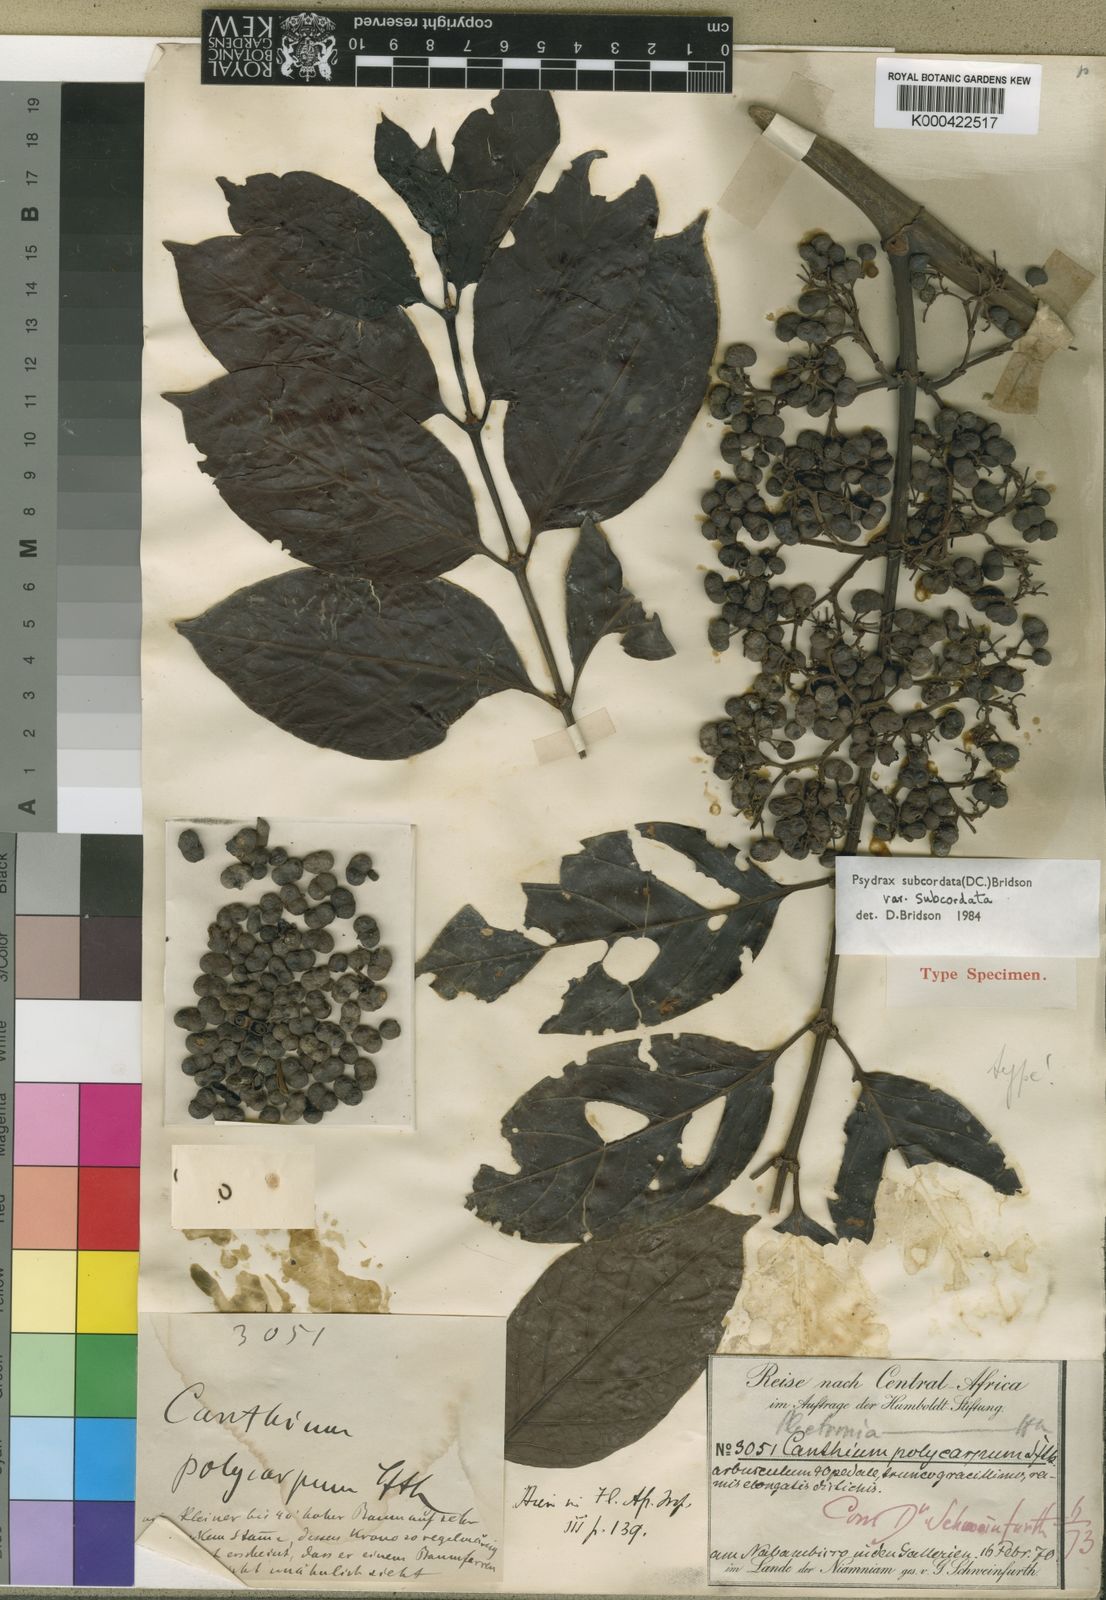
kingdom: Plantae
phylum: Tracheophyta
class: Magnoliopsida
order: Gentianales
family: Rubiaceae
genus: Psydrax
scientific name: Psydrax subcordatus
